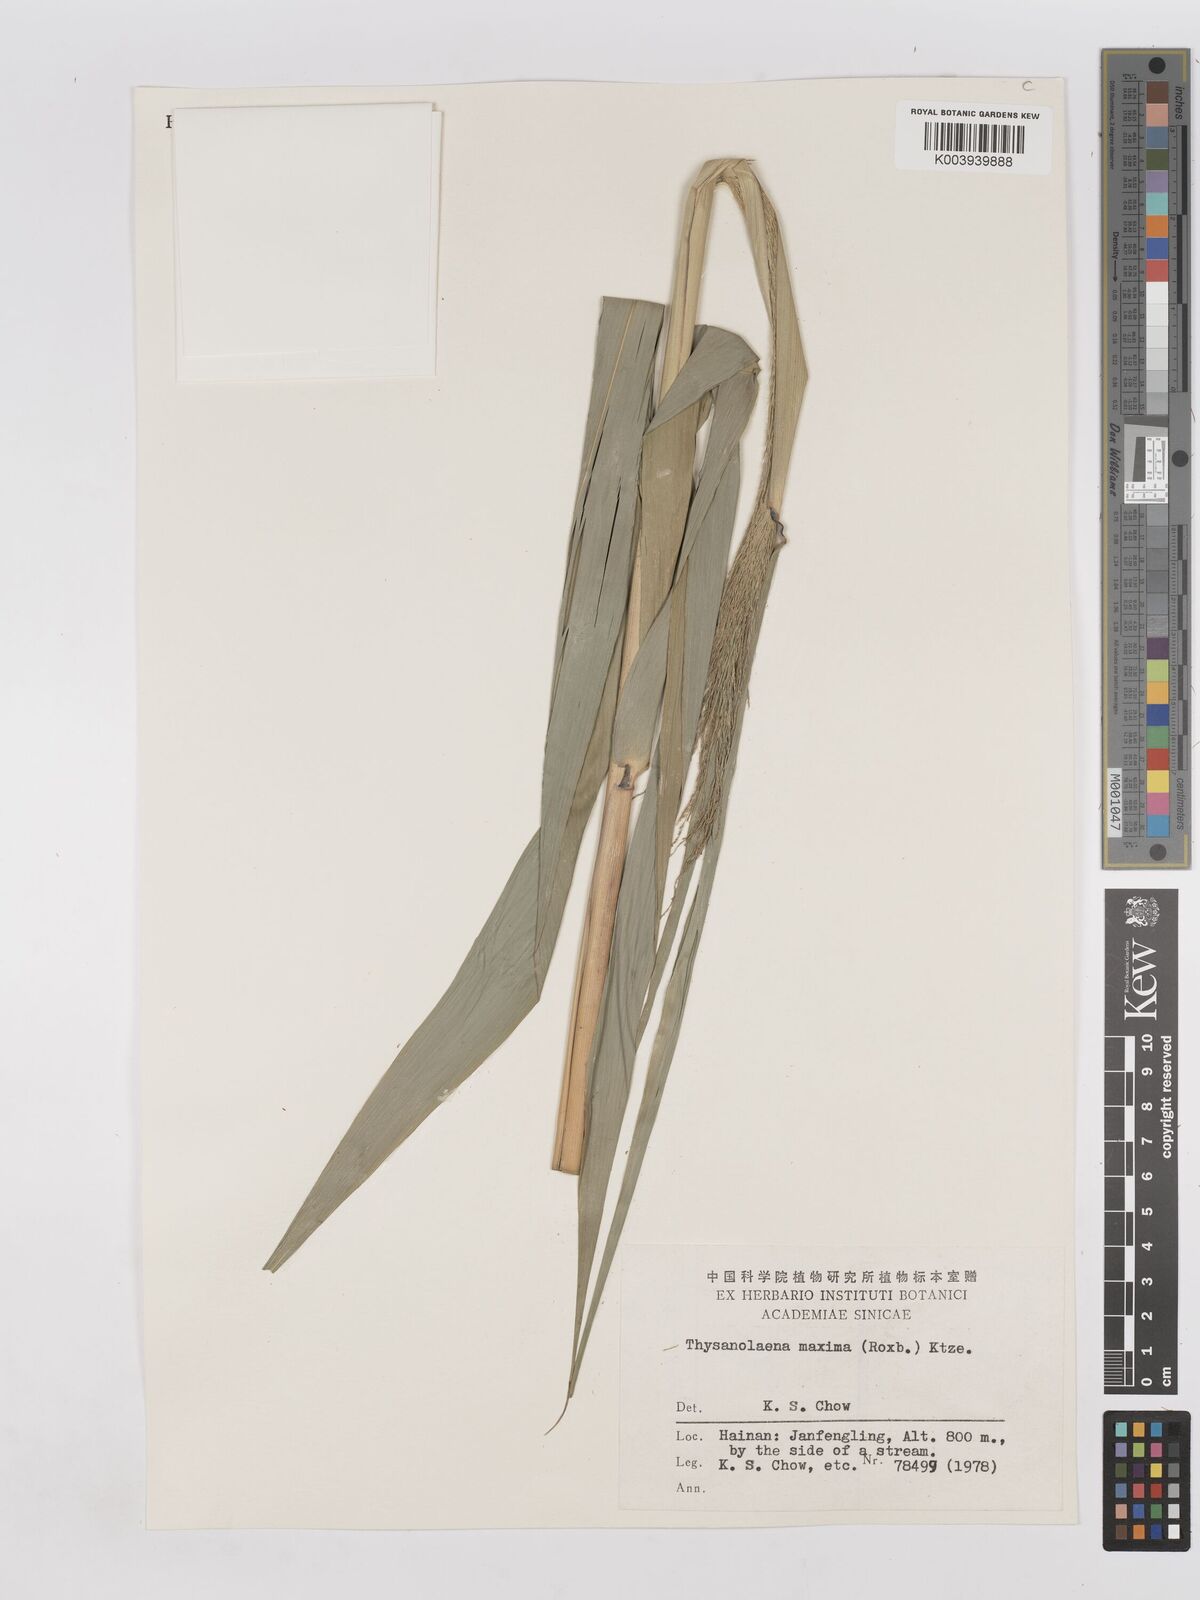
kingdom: Plantae
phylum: Tracheophyta
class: Liliopsida
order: Poales
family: Poaceae
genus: Thysanolaena
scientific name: Thysanolaena latifolia
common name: Tiger grass
